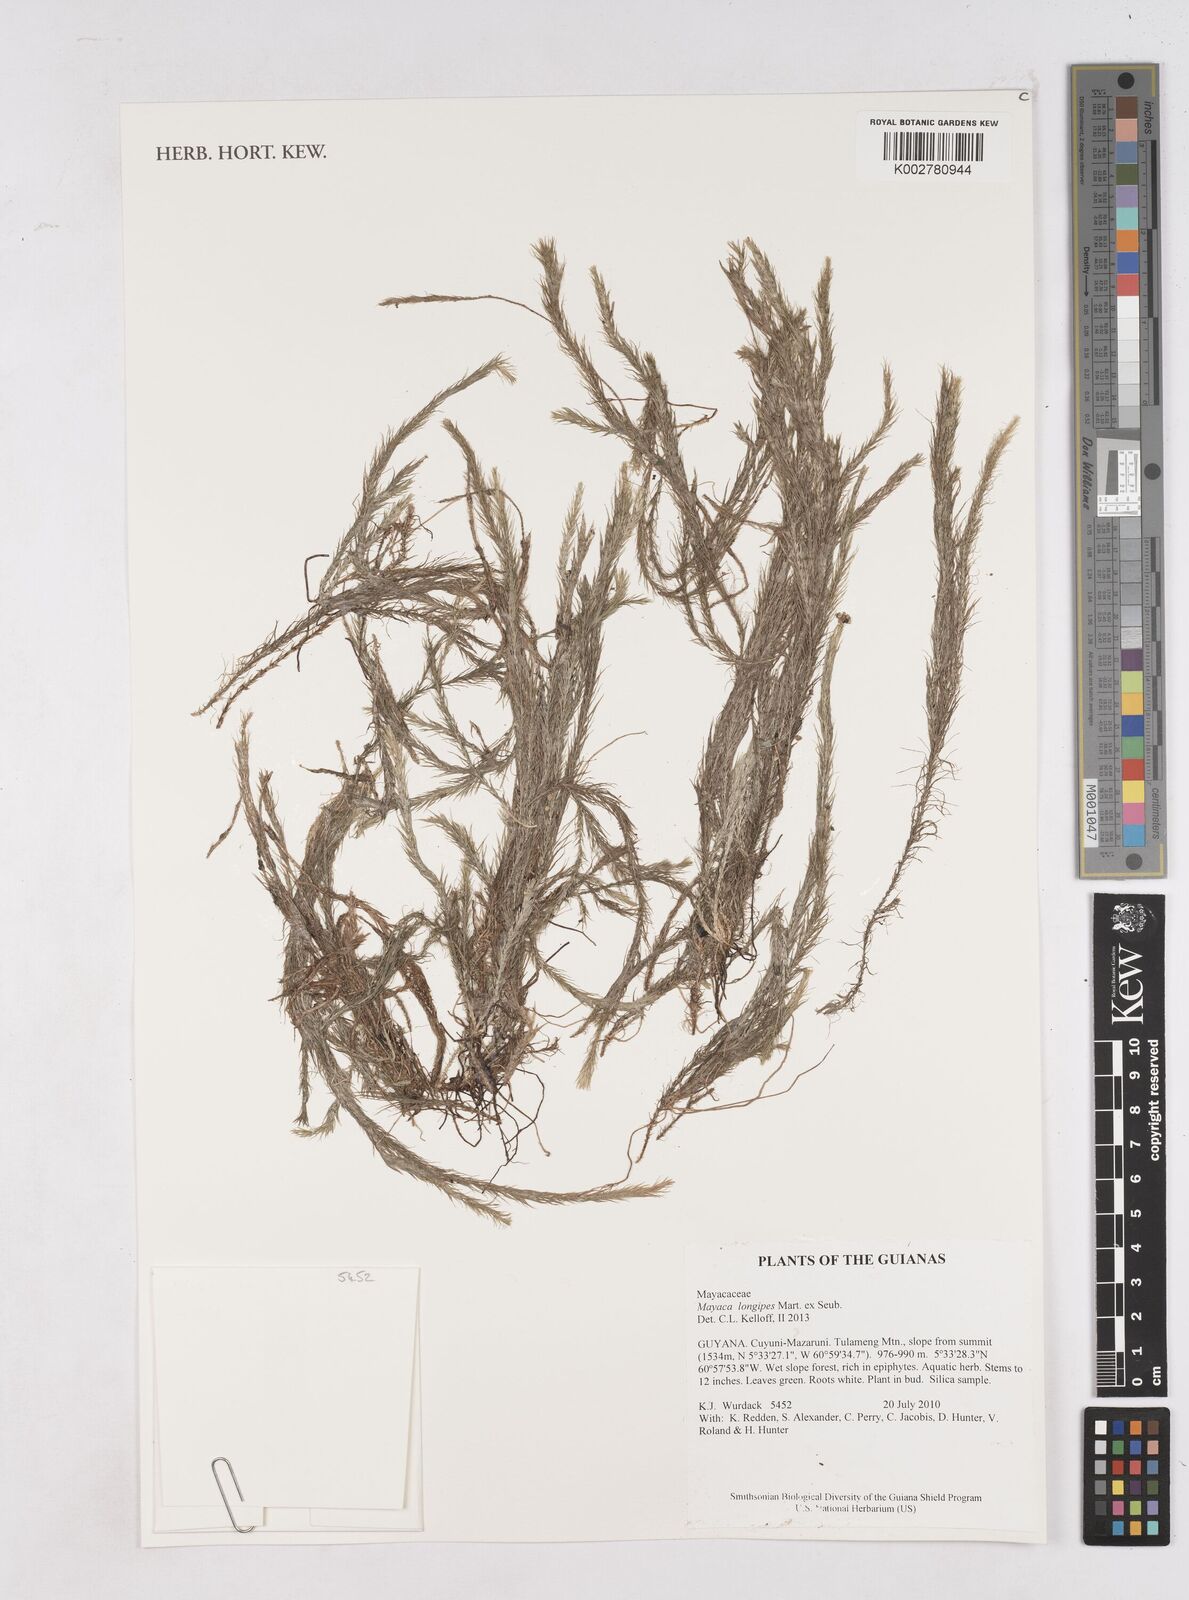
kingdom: Plantae
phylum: Tracheophyta
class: Liliopsida
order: Poales
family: Mayacaceae
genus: Mayaca
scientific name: Mayaca fluviatilis
